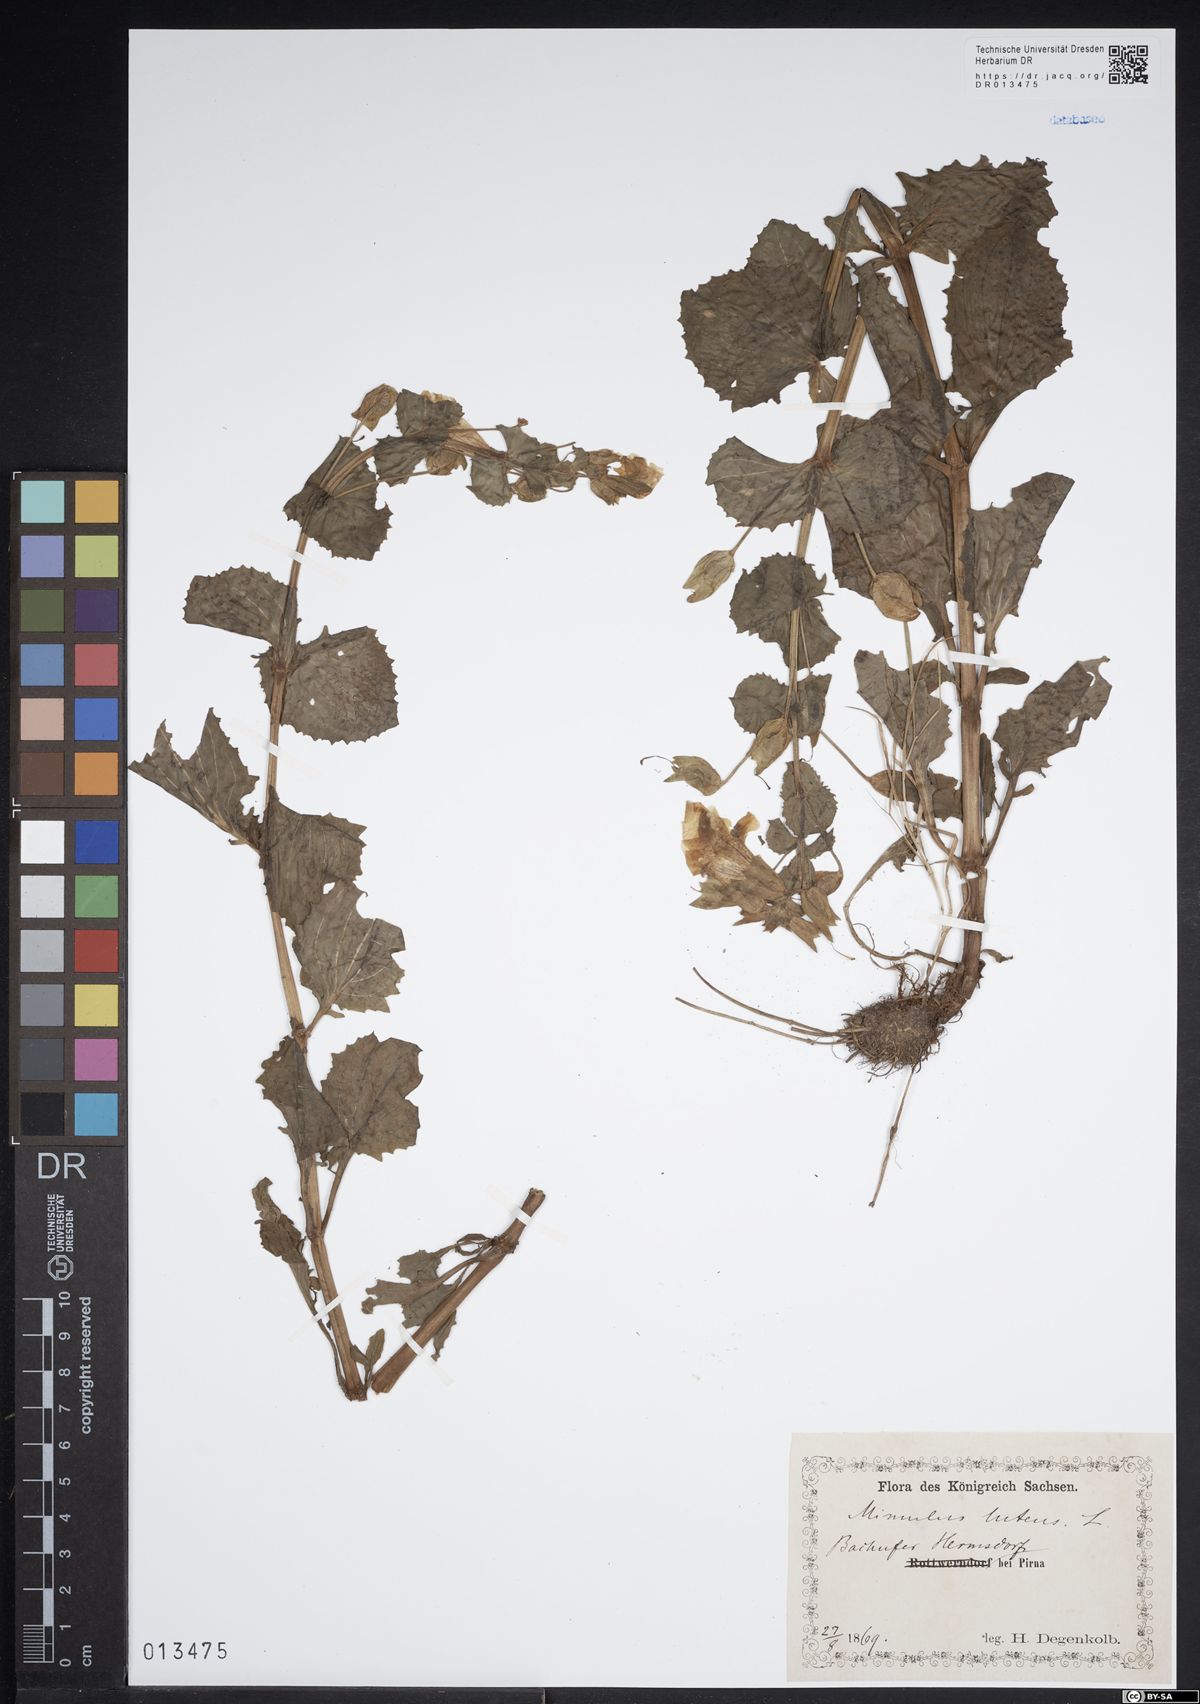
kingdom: Plantae
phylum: Tracheophyta
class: Magnoliopsida
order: Lamiales
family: Phrymaceae
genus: Erythranthe
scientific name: Erythranthe guttata
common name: Monkeyflower
